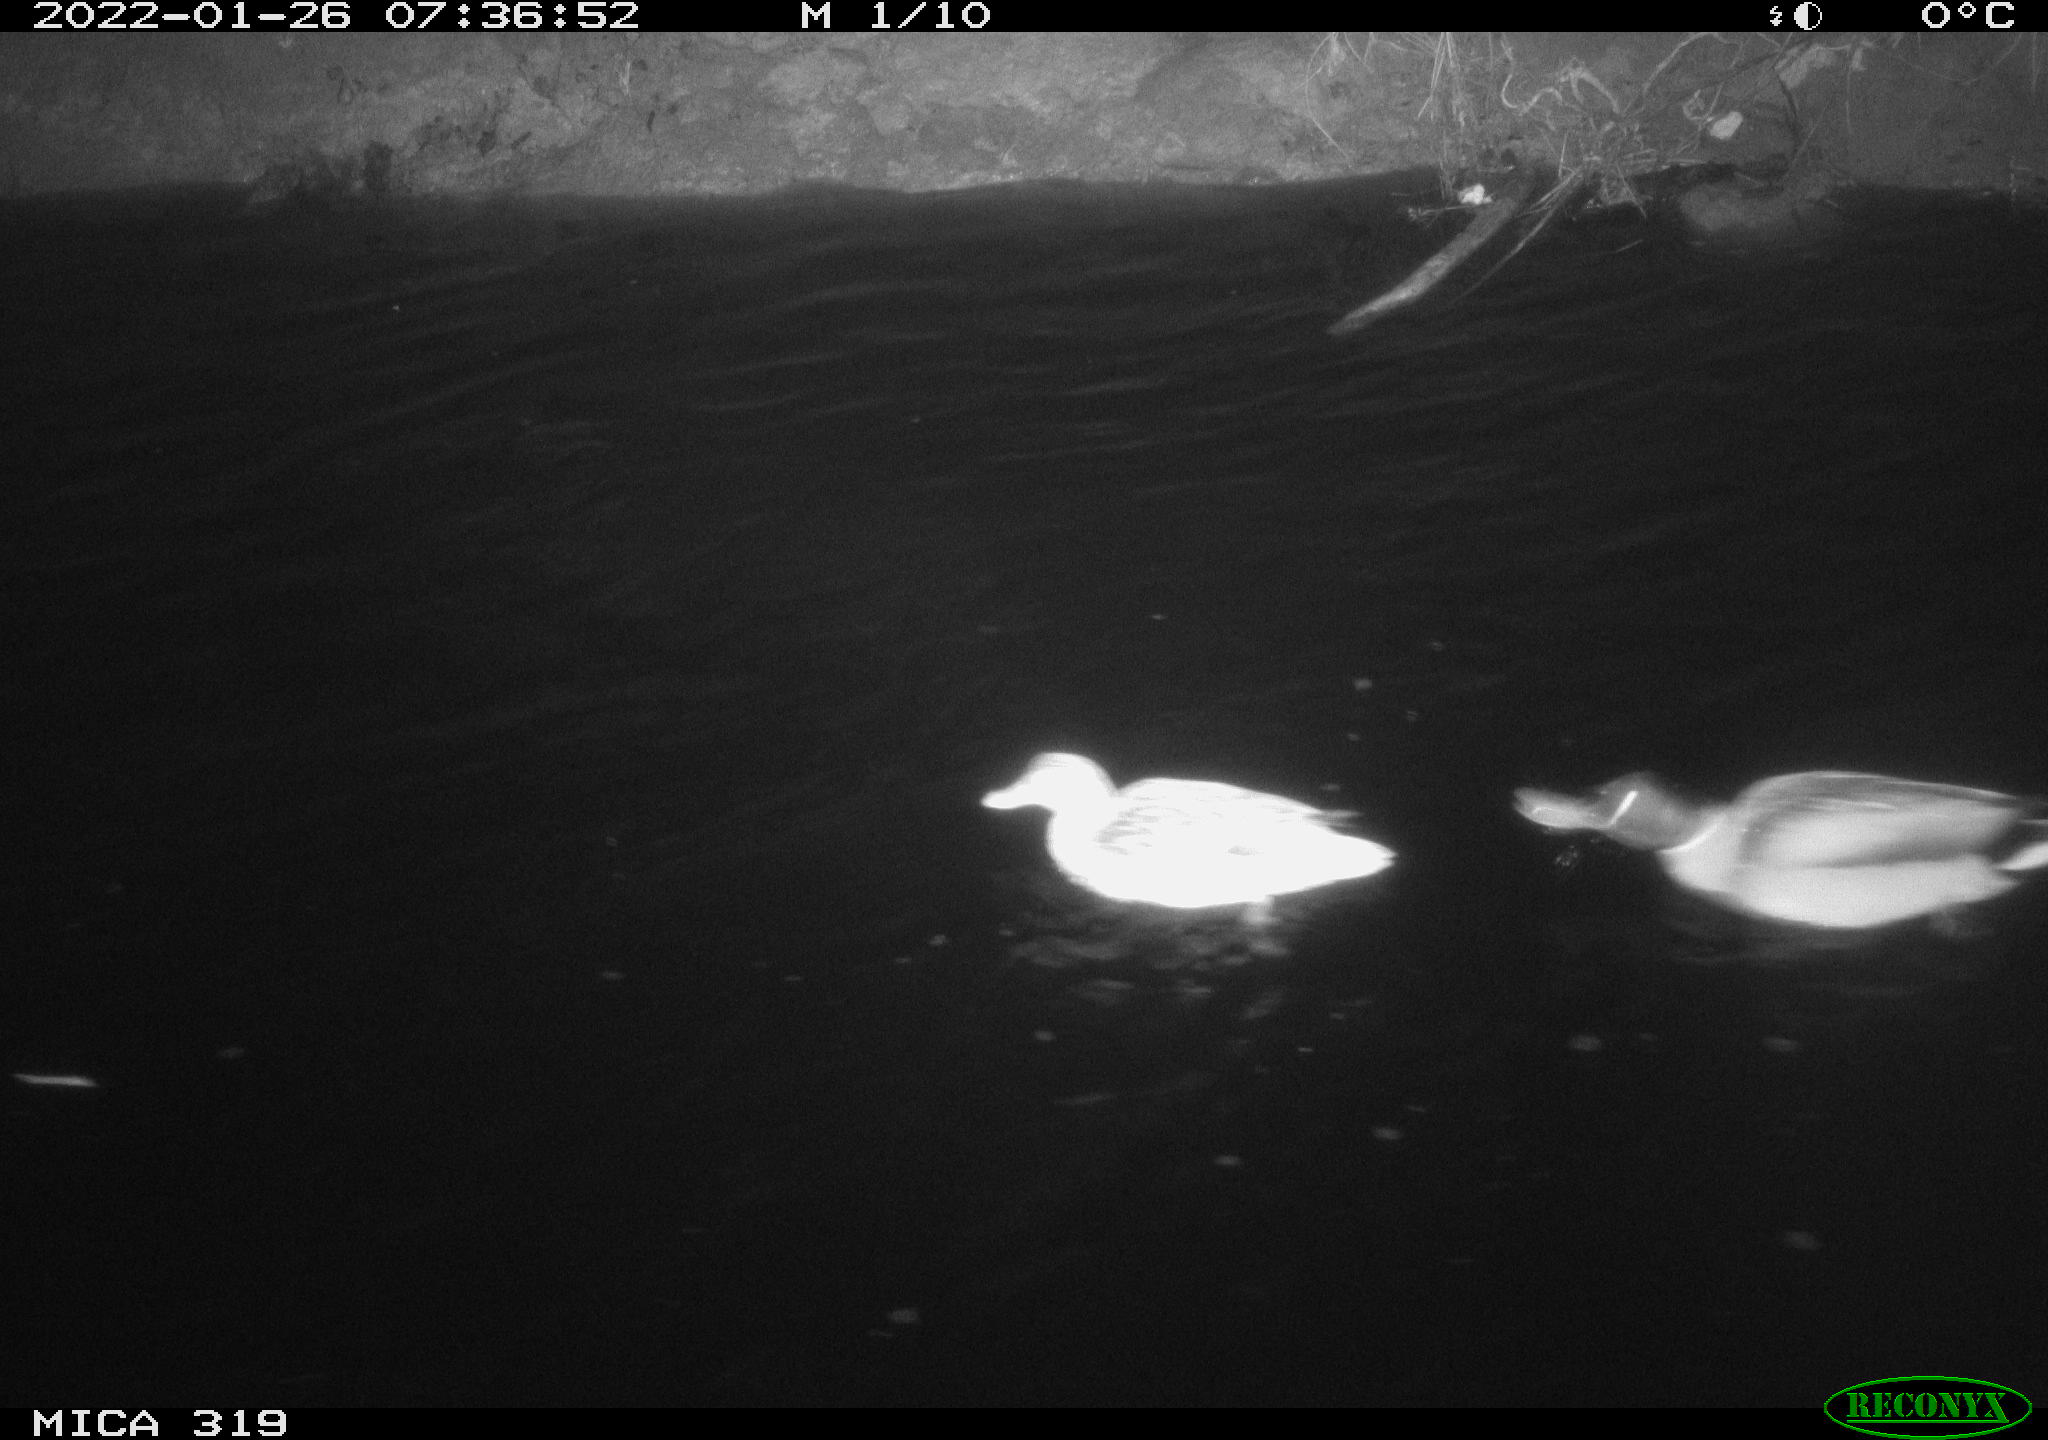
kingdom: Animalia
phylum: Chordata
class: Aves
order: Anseriformes
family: Anatidae
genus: Anas
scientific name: Anas platyrhynchos
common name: Mallard
